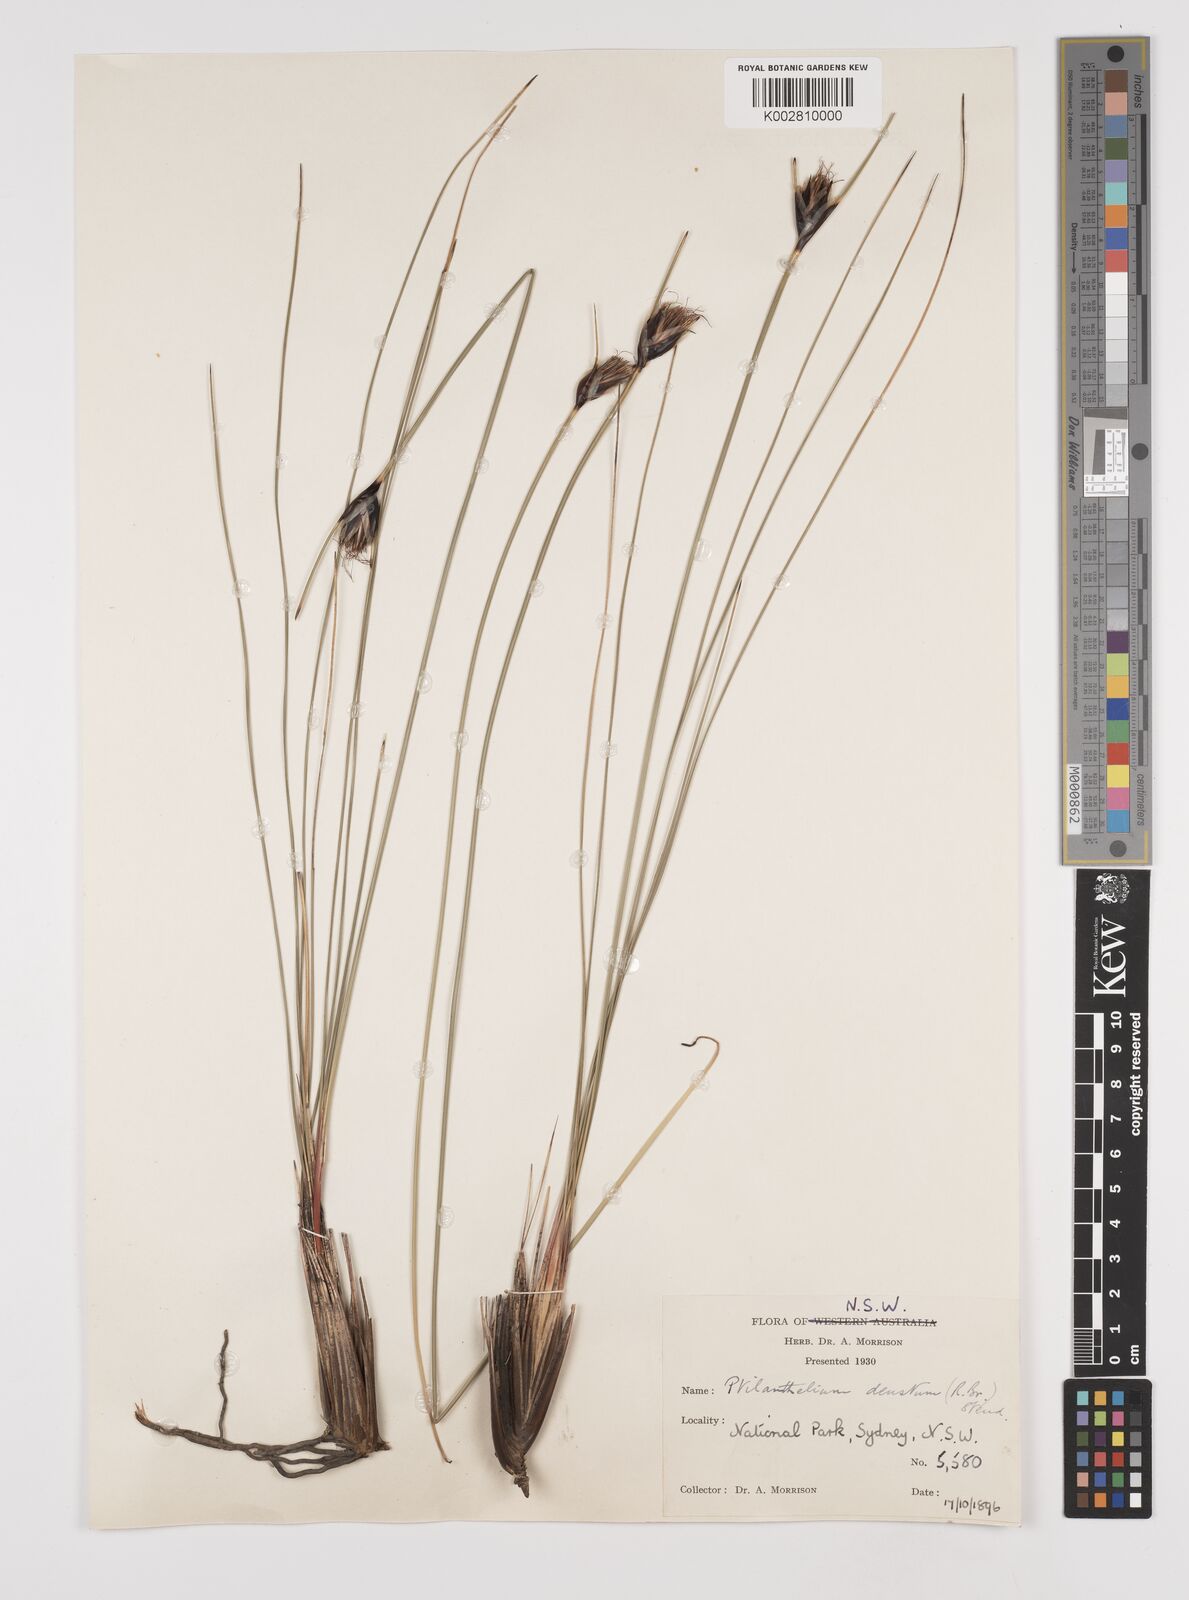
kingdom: Plantae
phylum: Tracheophyta
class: Liliopsida
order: Poales
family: Cyperaceae
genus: Ptilothrix
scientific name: Ptilothrix deusta
